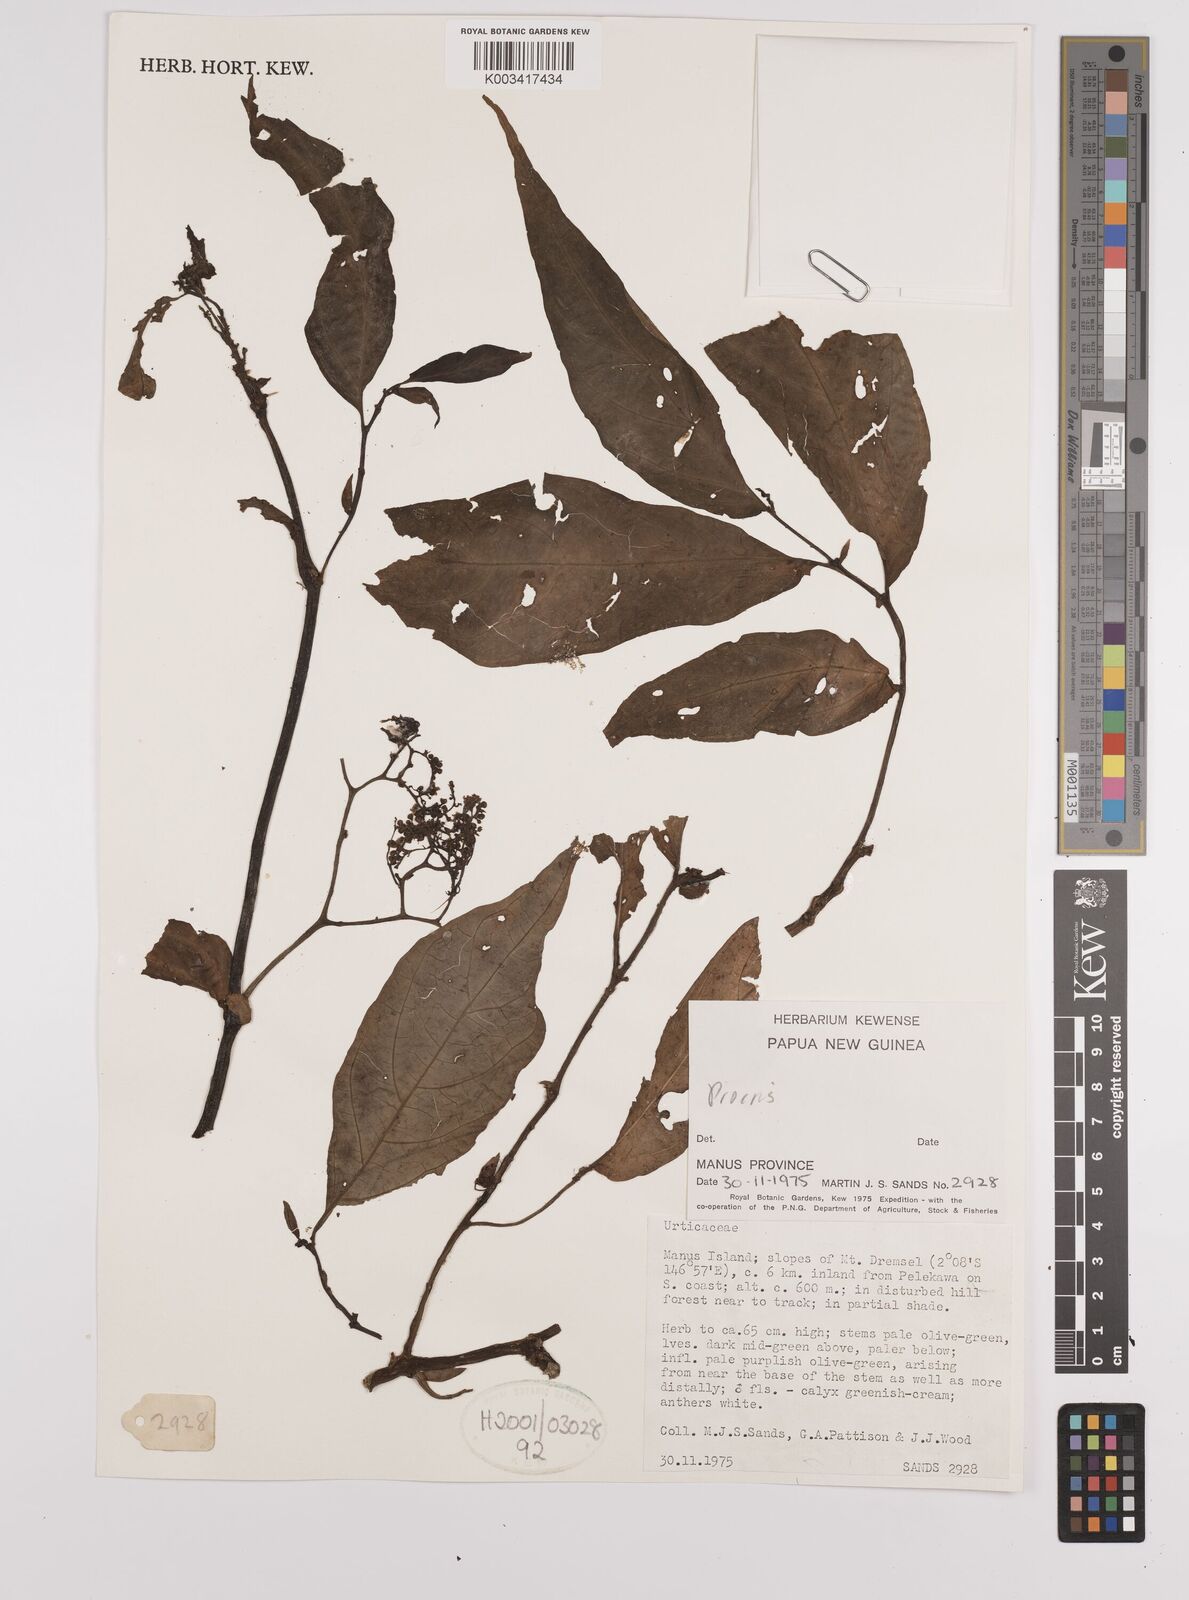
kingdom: Plantae
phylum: Tracheophyta
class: Magnoliopsida
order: Rosales
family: Urticaceae
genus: Procris
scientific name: Procris
